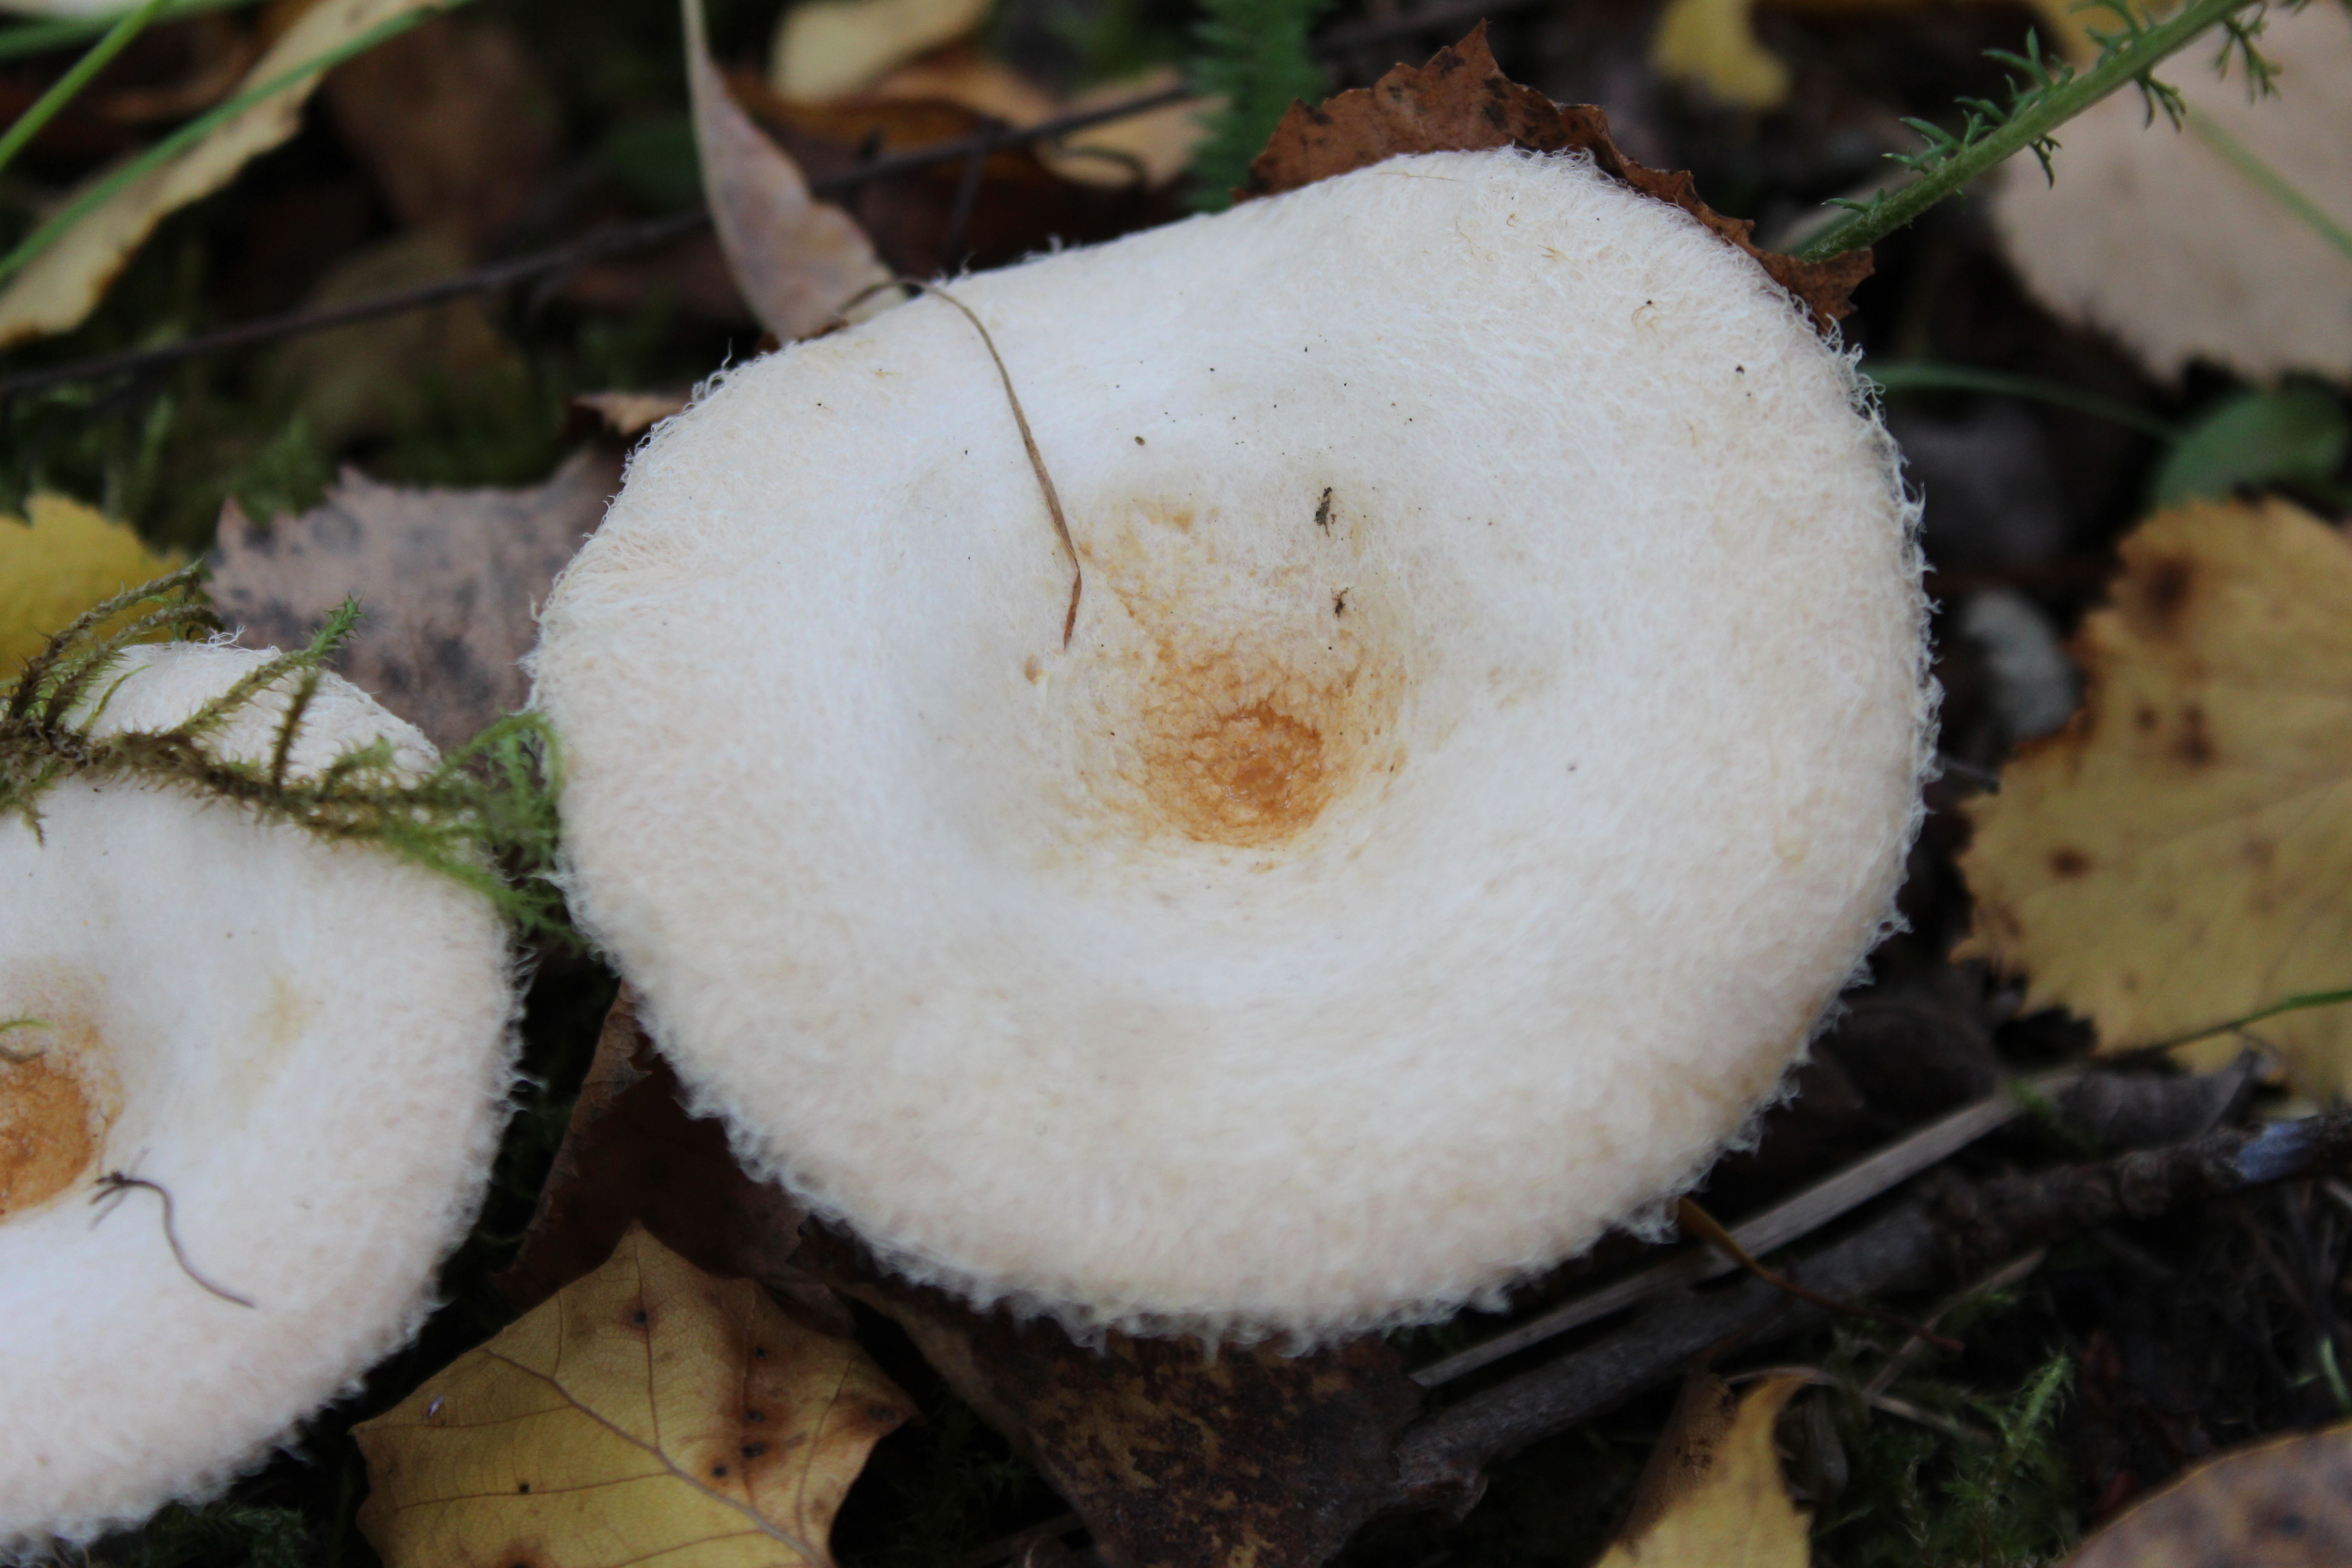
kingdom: Fungi
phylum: Basidiomycota
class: Agaricomycetes
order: Russulales
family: Russulaceae
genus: Lactarius
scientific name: Lactarius pubescens
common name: Bearded milkcap
